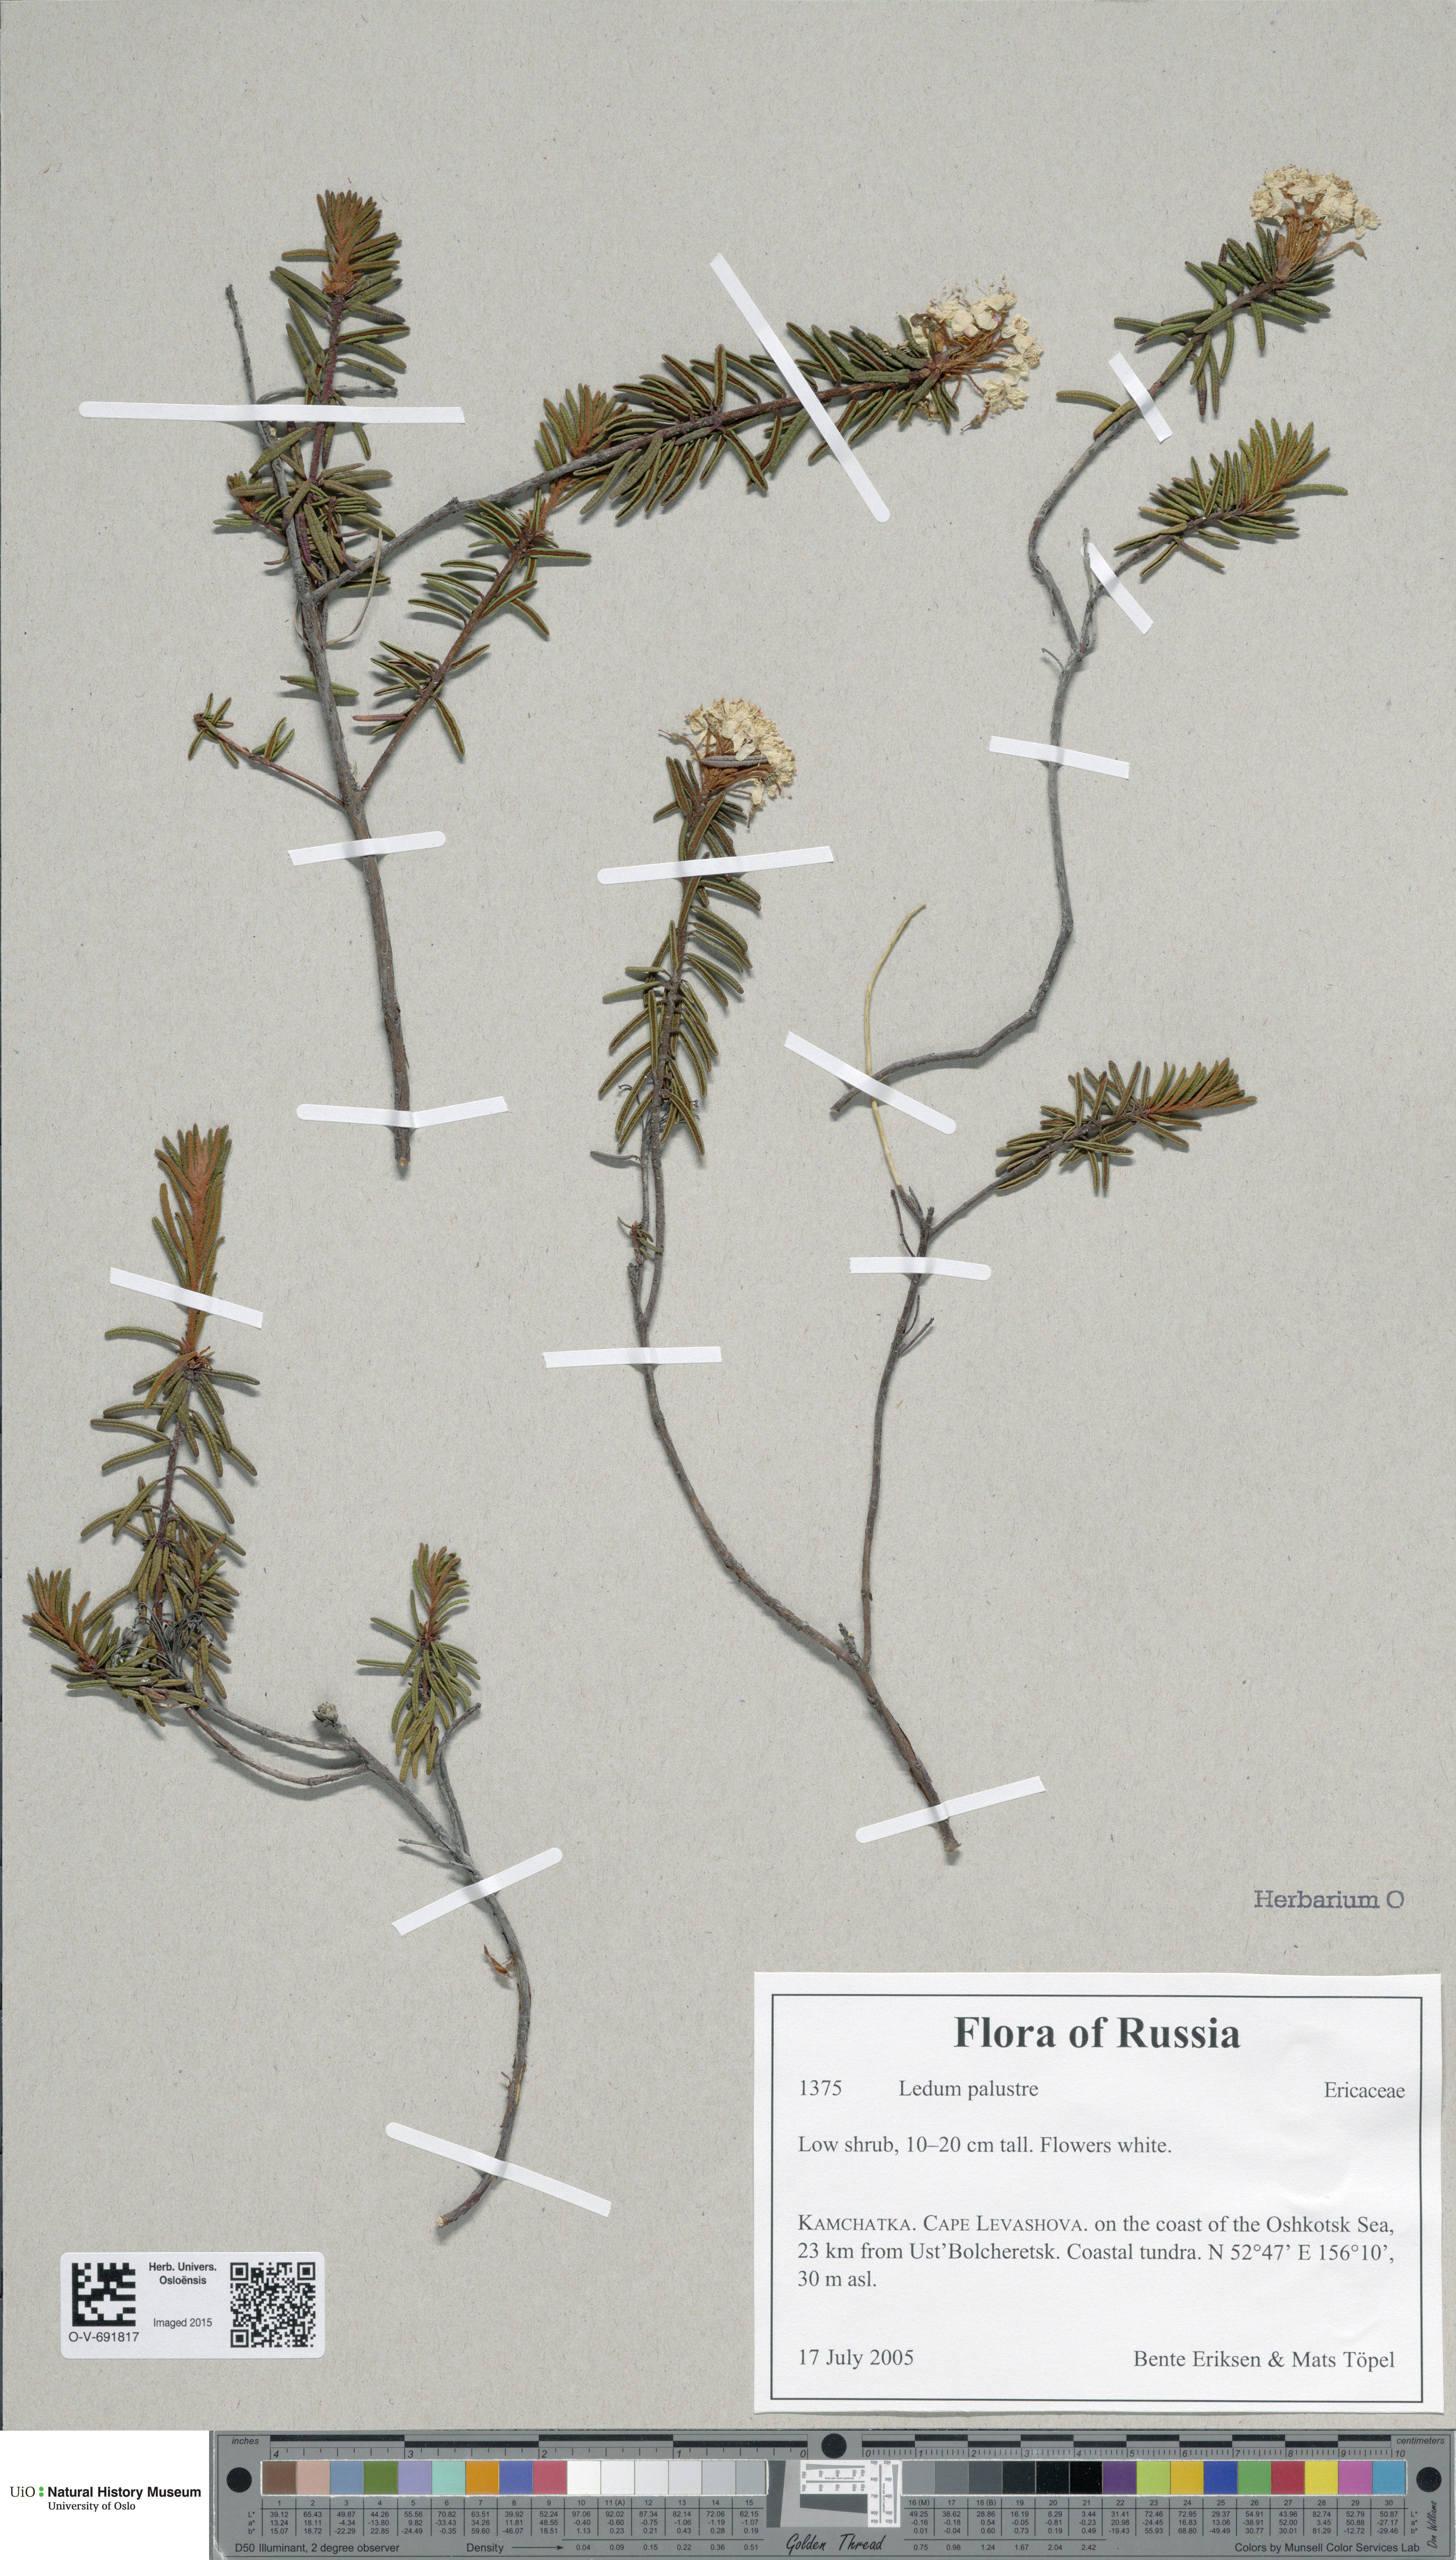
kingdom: Plantae
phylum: Tracheophyta
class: Magnoliopsida
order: Ericales
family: Ericaceae
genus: Rhododendron
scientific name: Rhododendron tomentosum
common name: Marsh labrador tea
